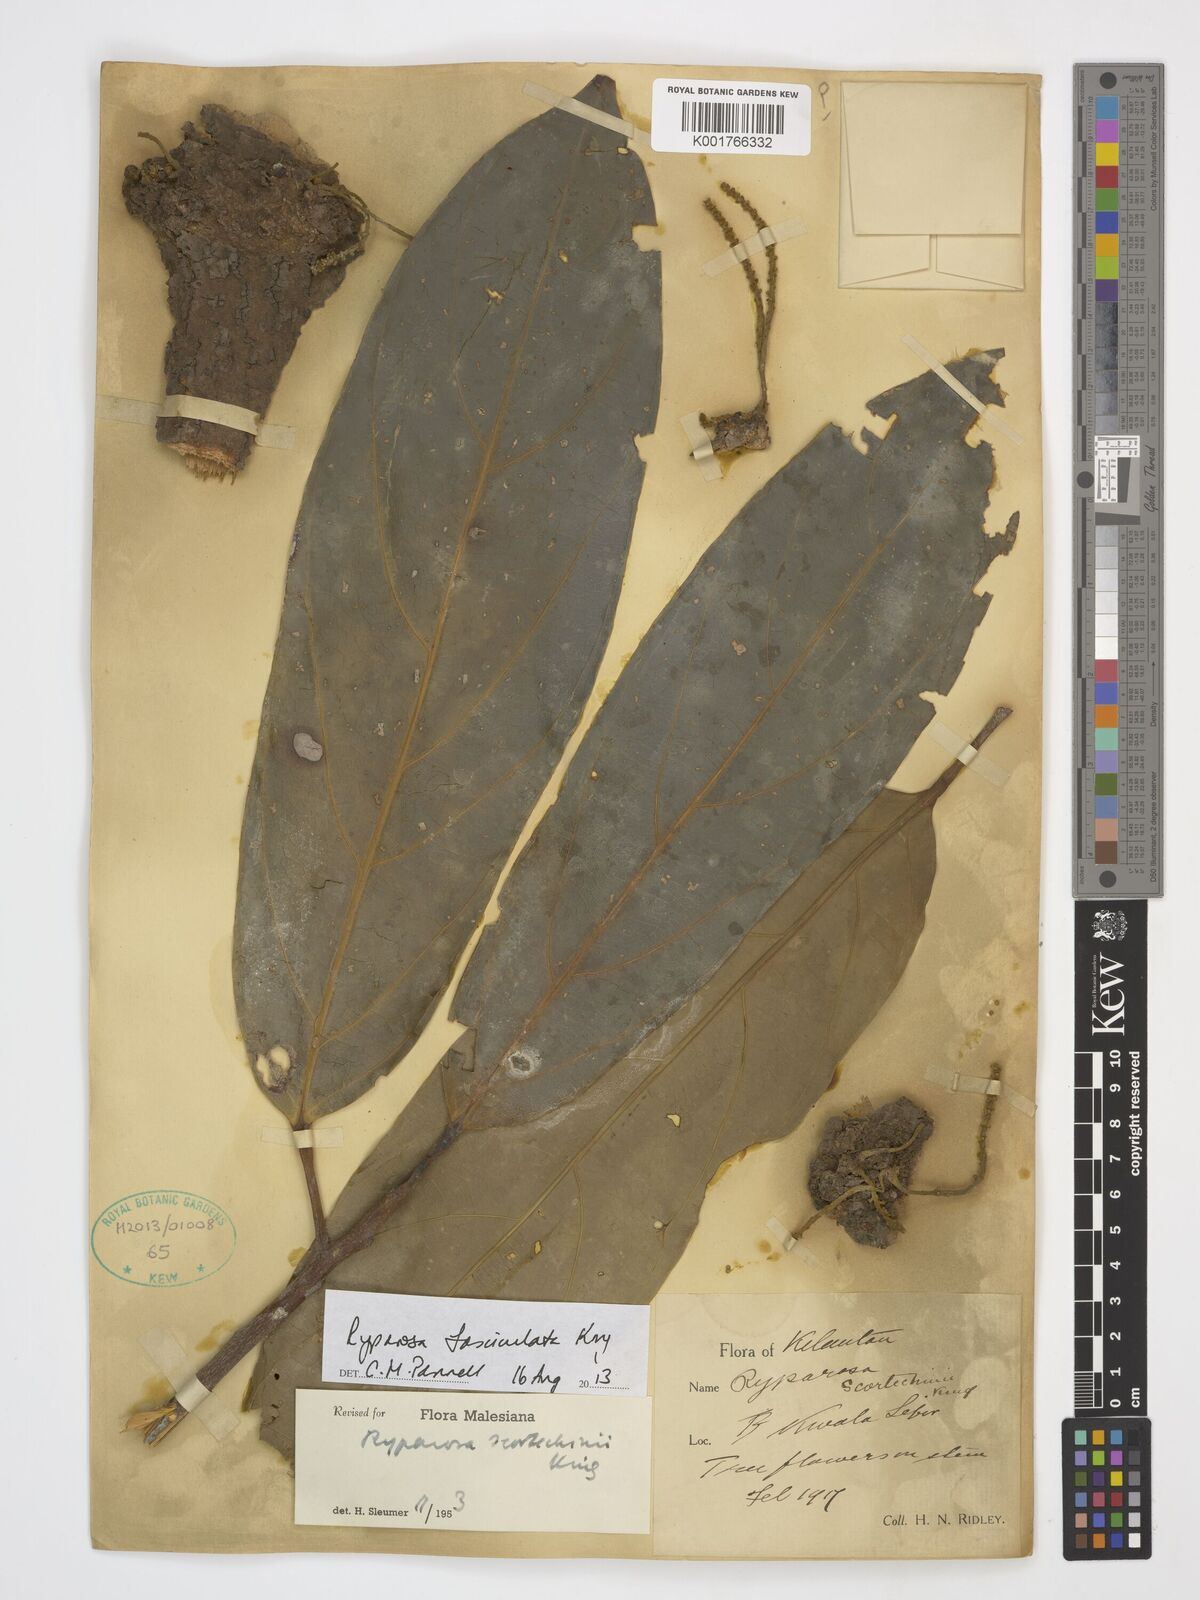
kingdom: Plantae
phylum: Tracheophyta
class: Magnoliopsida
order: Malpighiales
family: Achariaceae
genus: Ryparosa
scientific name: Ryparosa fasciculata
